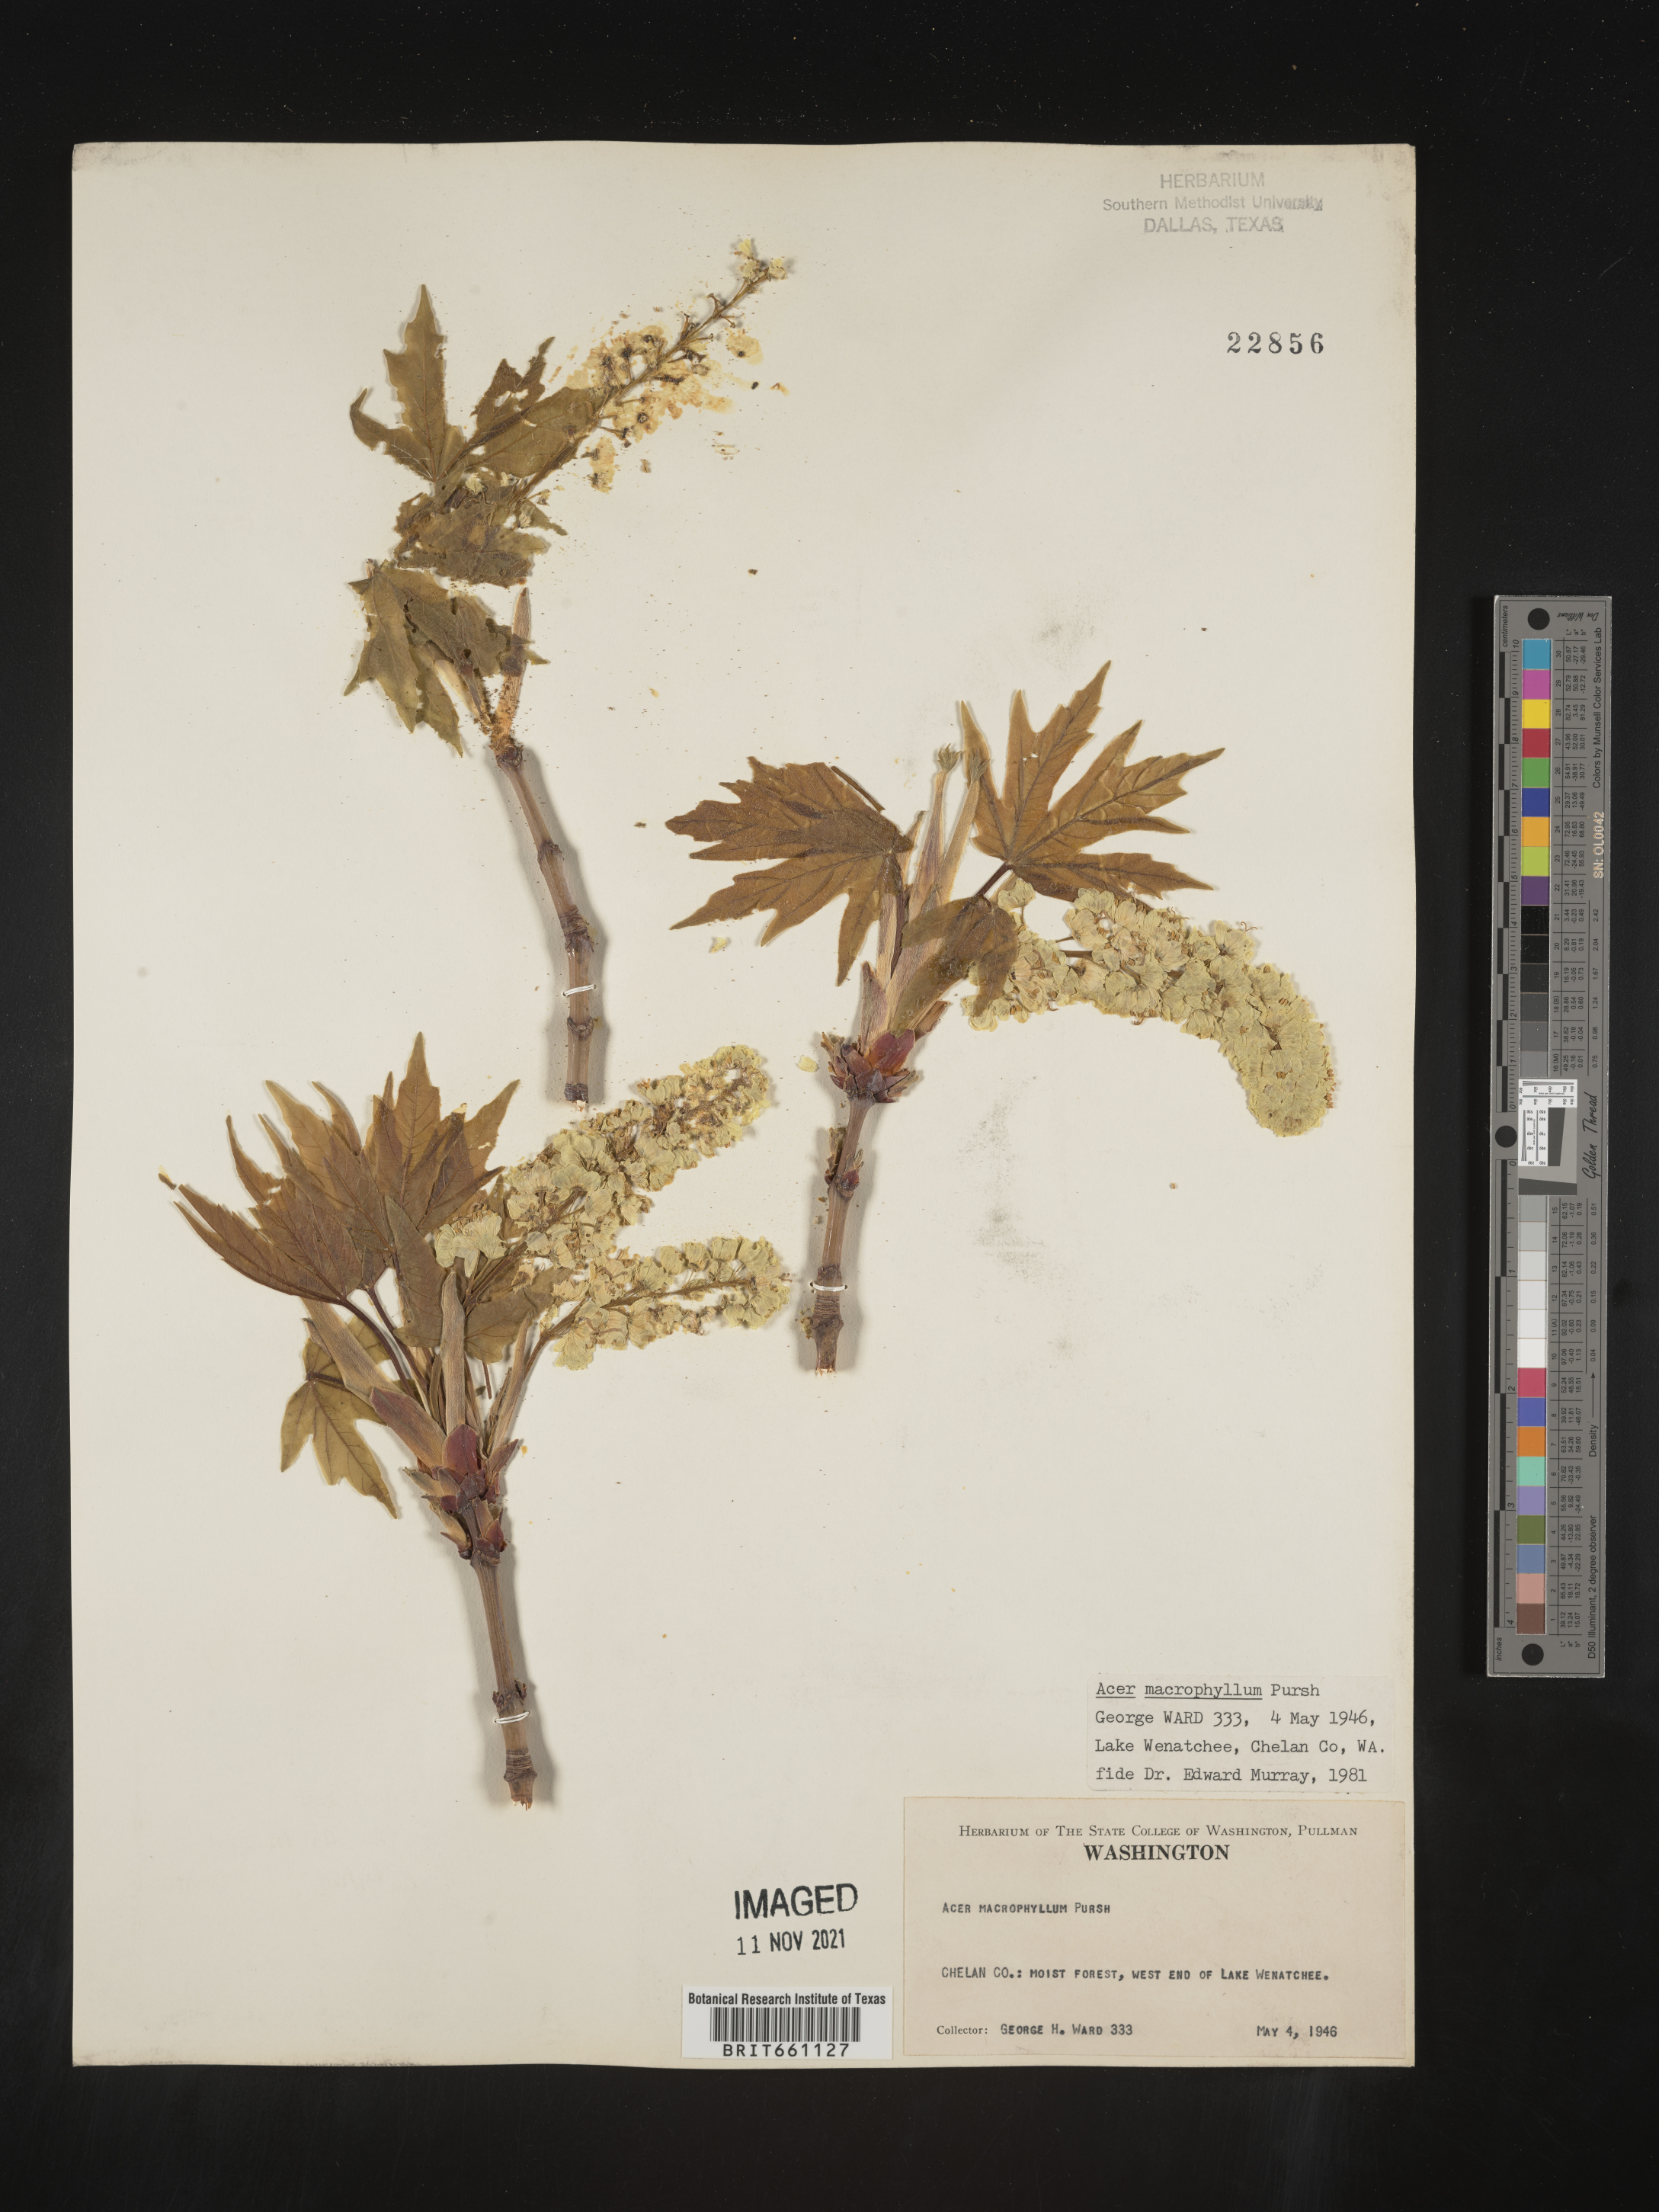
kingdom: Plantae
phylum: Tracheophyta
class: Magnoliopsida
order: Sapindales
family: Sapindaceae
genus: Acer
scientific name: Acer macrophyllum
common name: Oregon maple
